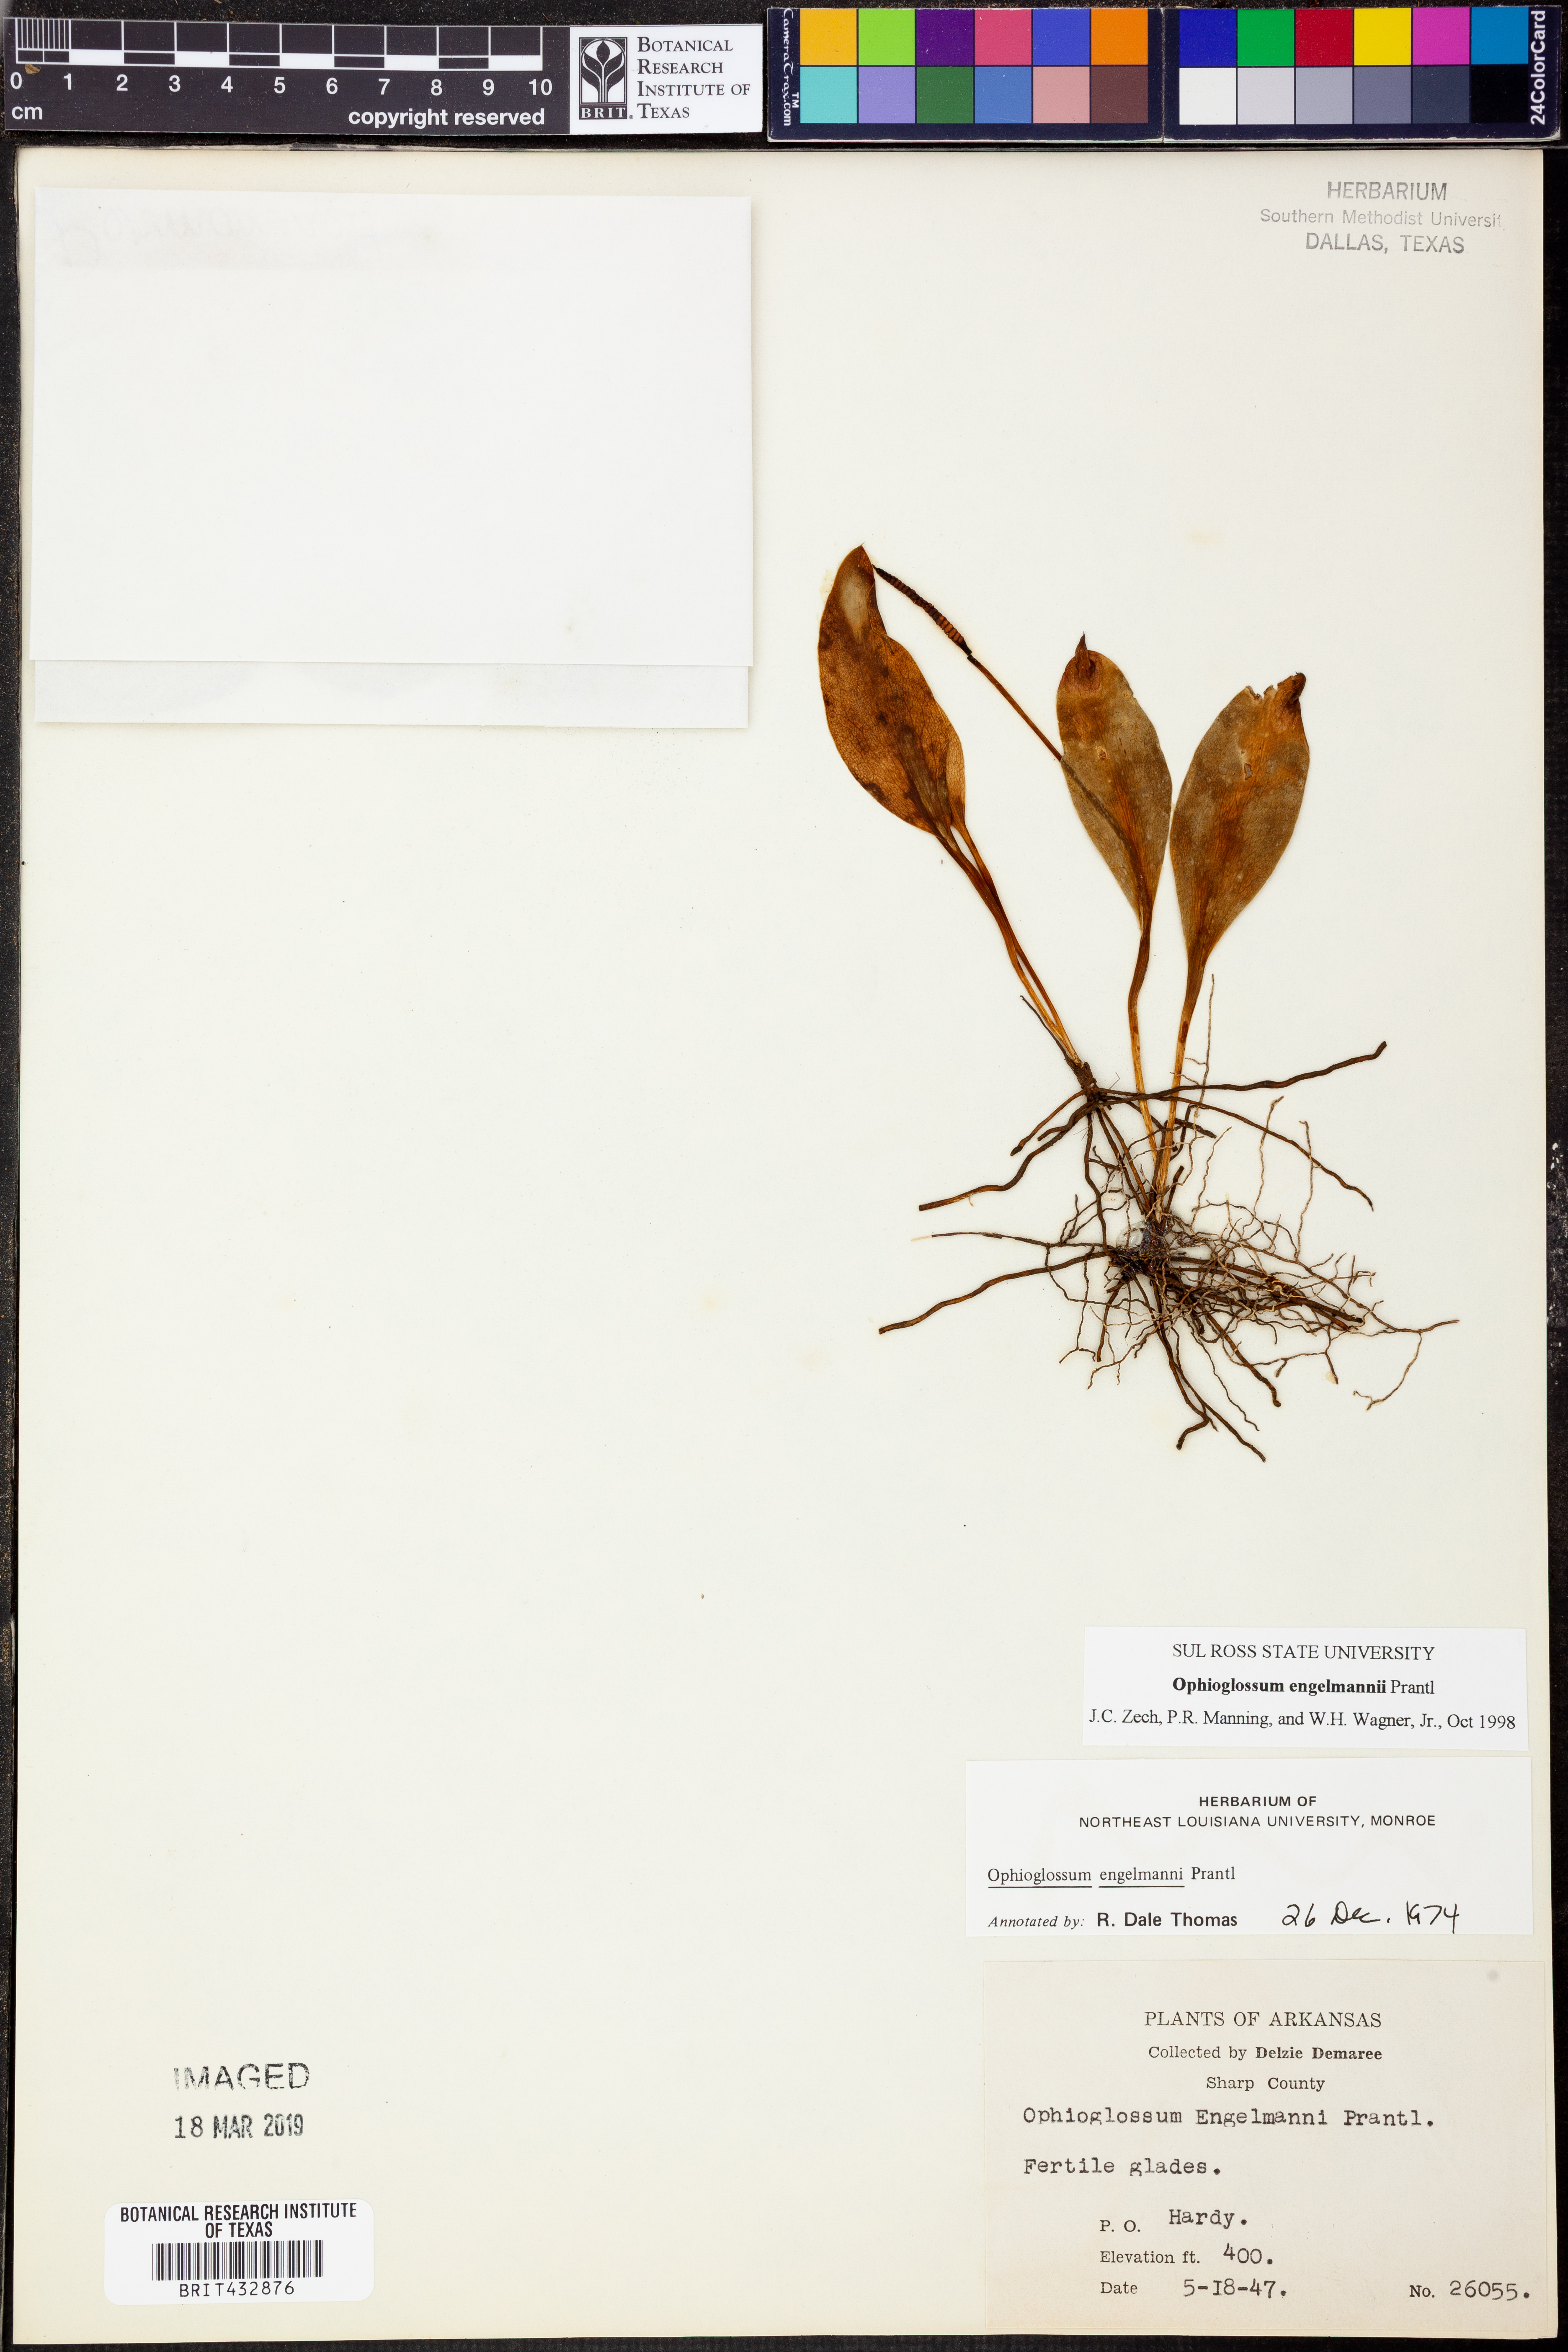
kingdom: Plantae
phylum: Tracheophyta
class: Polypodiopsida
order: Ophioglossales
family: Ophioglossaceae
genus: Ophioglossum
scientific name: Ophioglossum engelmannii
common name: Limestone adder's-tongue
